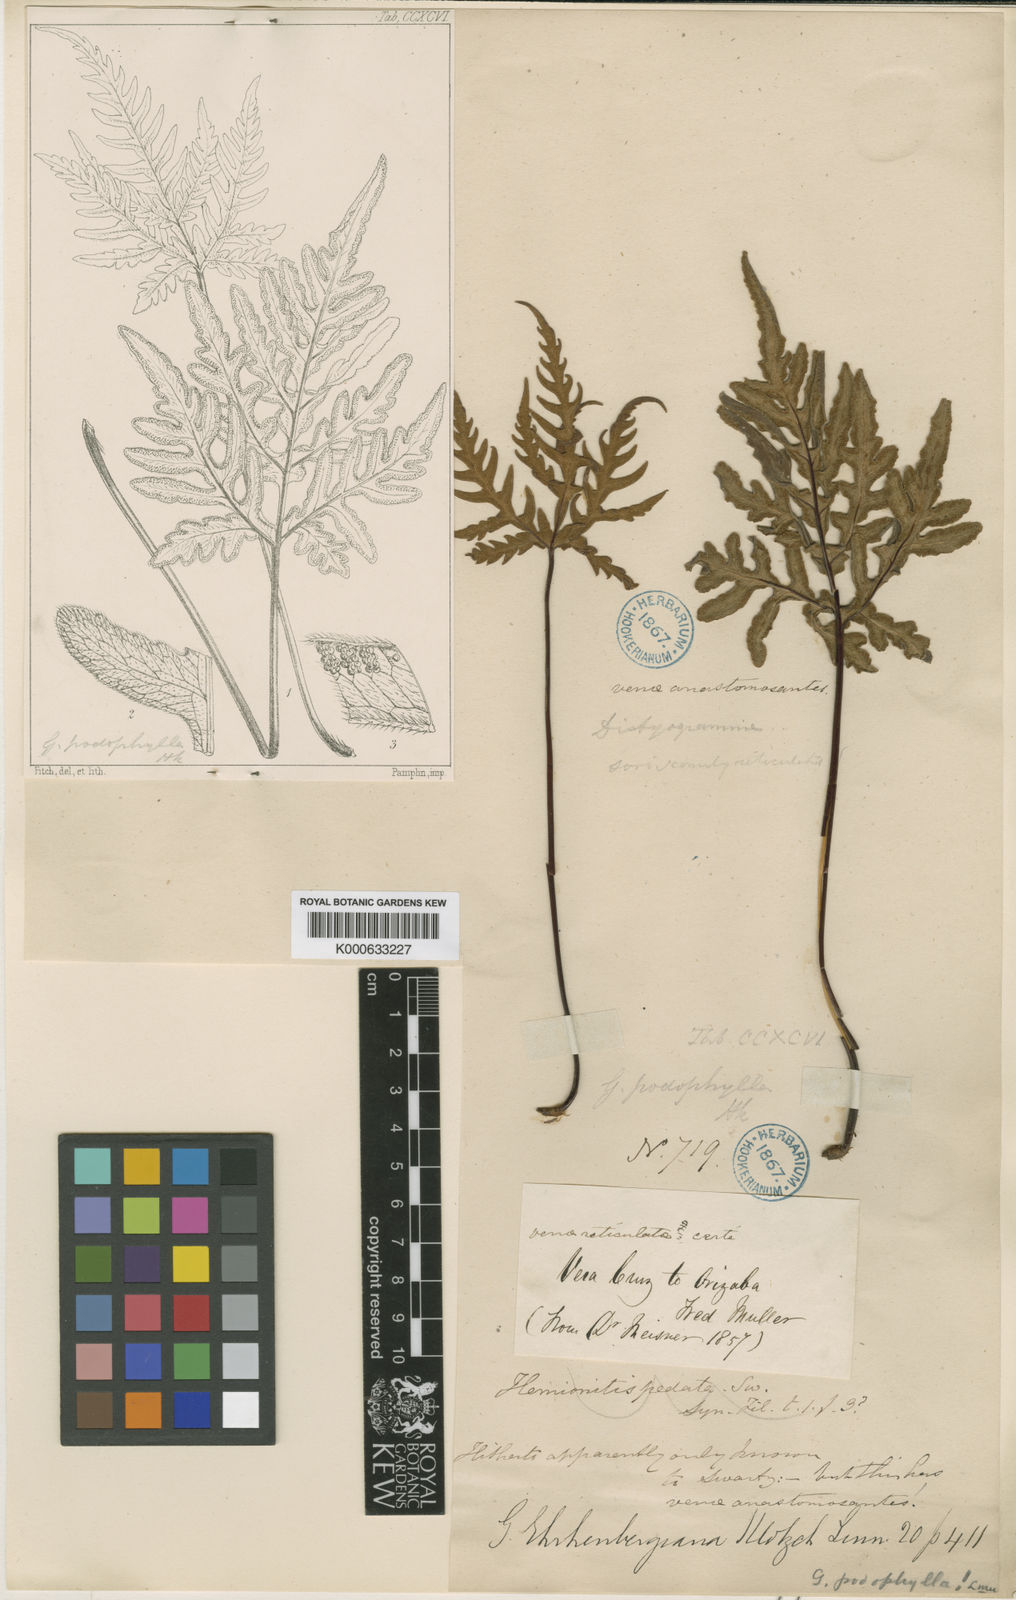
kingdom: Plantae
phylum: Tracheophyta
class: Polypodiopsida
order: Polypodiales
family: Pteridaceae
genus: Bommeria
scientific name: Bommeria ehrenbergiana
